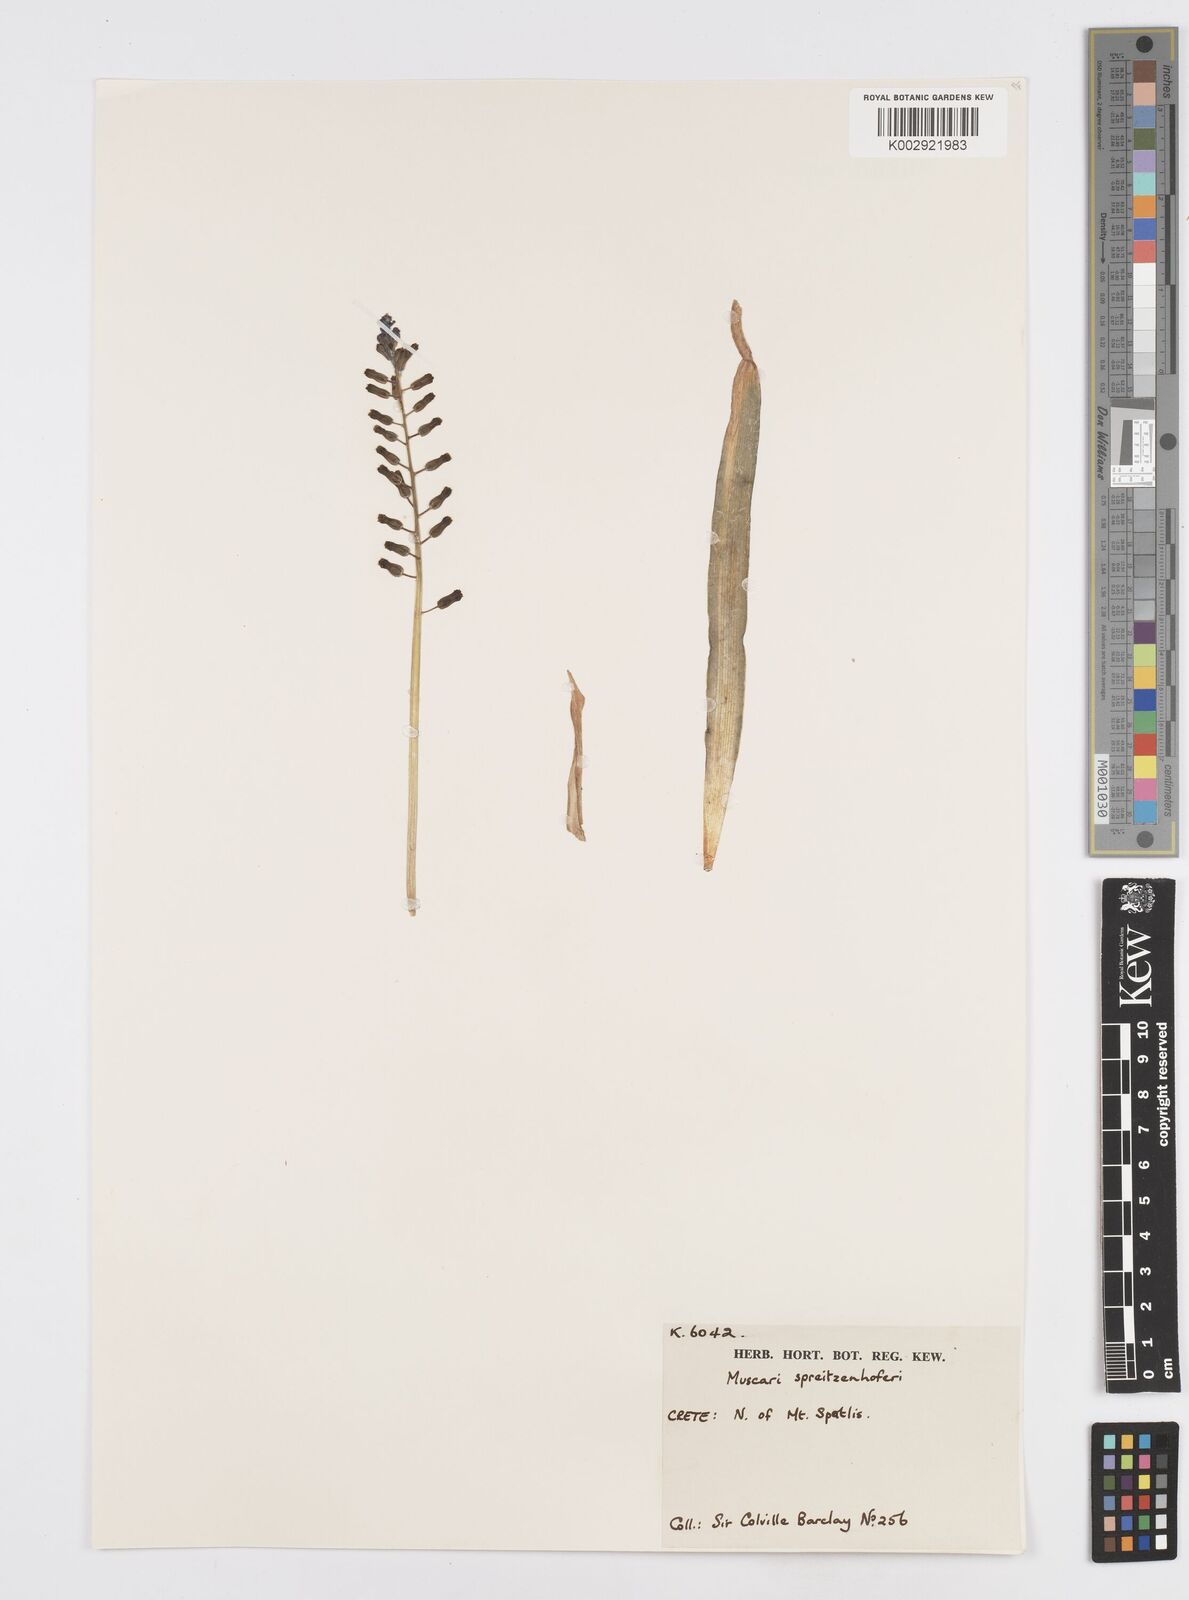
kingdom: Plantae
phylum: Tracheophyta
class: Liliopsida
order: Asparagales
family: Asparagaceae
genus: Muscari
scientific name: Muscari spreitzenhoferi
